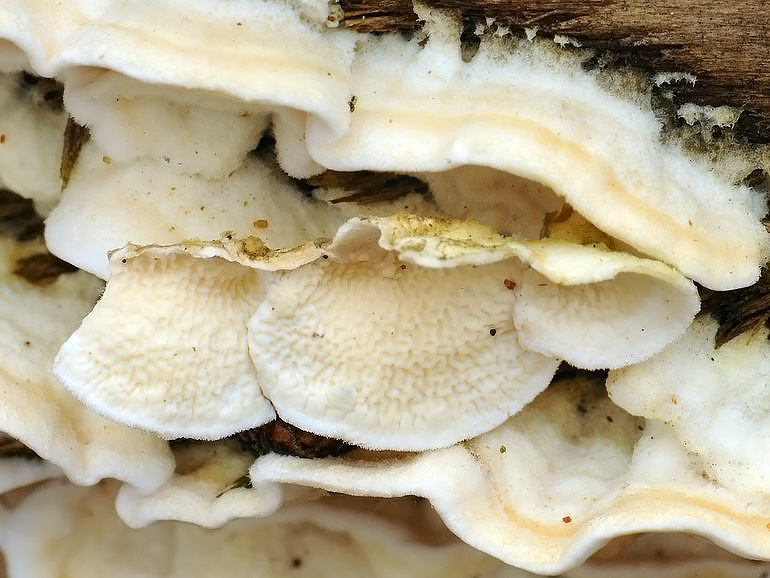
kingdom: Fungi
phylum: Basidiomycota
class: Agaricomycetes
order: Polyporales
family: Irpicaceae
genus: Byssomerulius
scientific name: Byssomerulius corium
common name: læder-åresvamp
